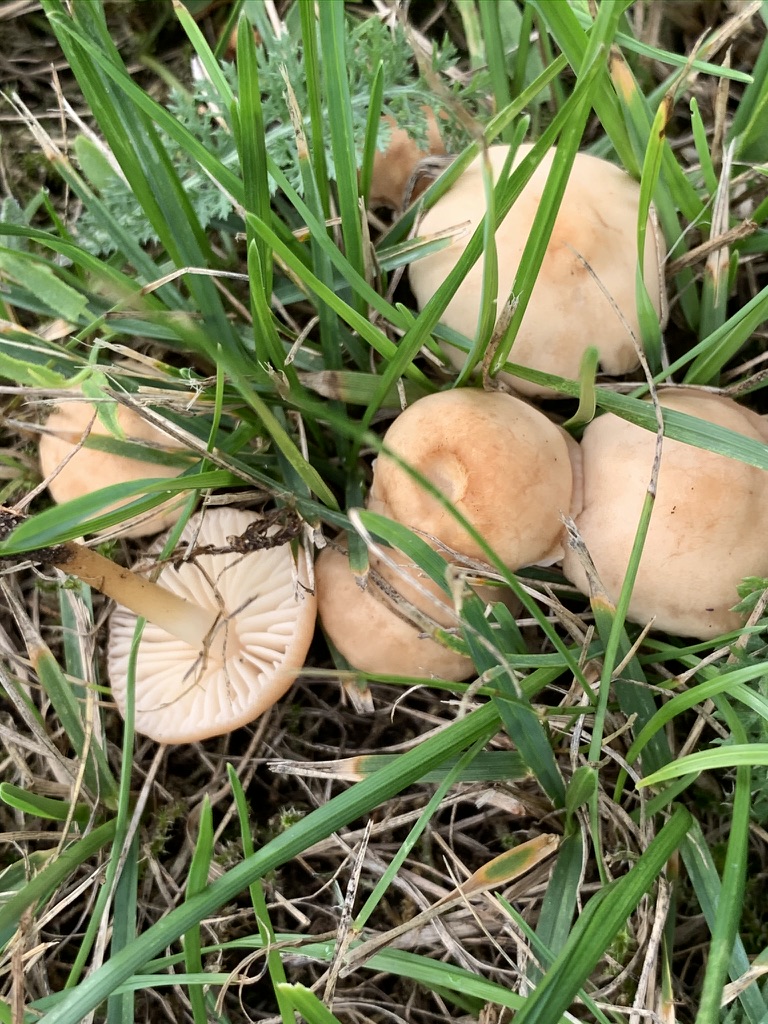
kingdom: Fungi
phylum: Basidiomycota
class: Agaricomycetes
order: Agaricales
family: Marasmiaceae
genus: Marasmius
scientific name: Marasmius oreades
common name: elledans-bruskhat
